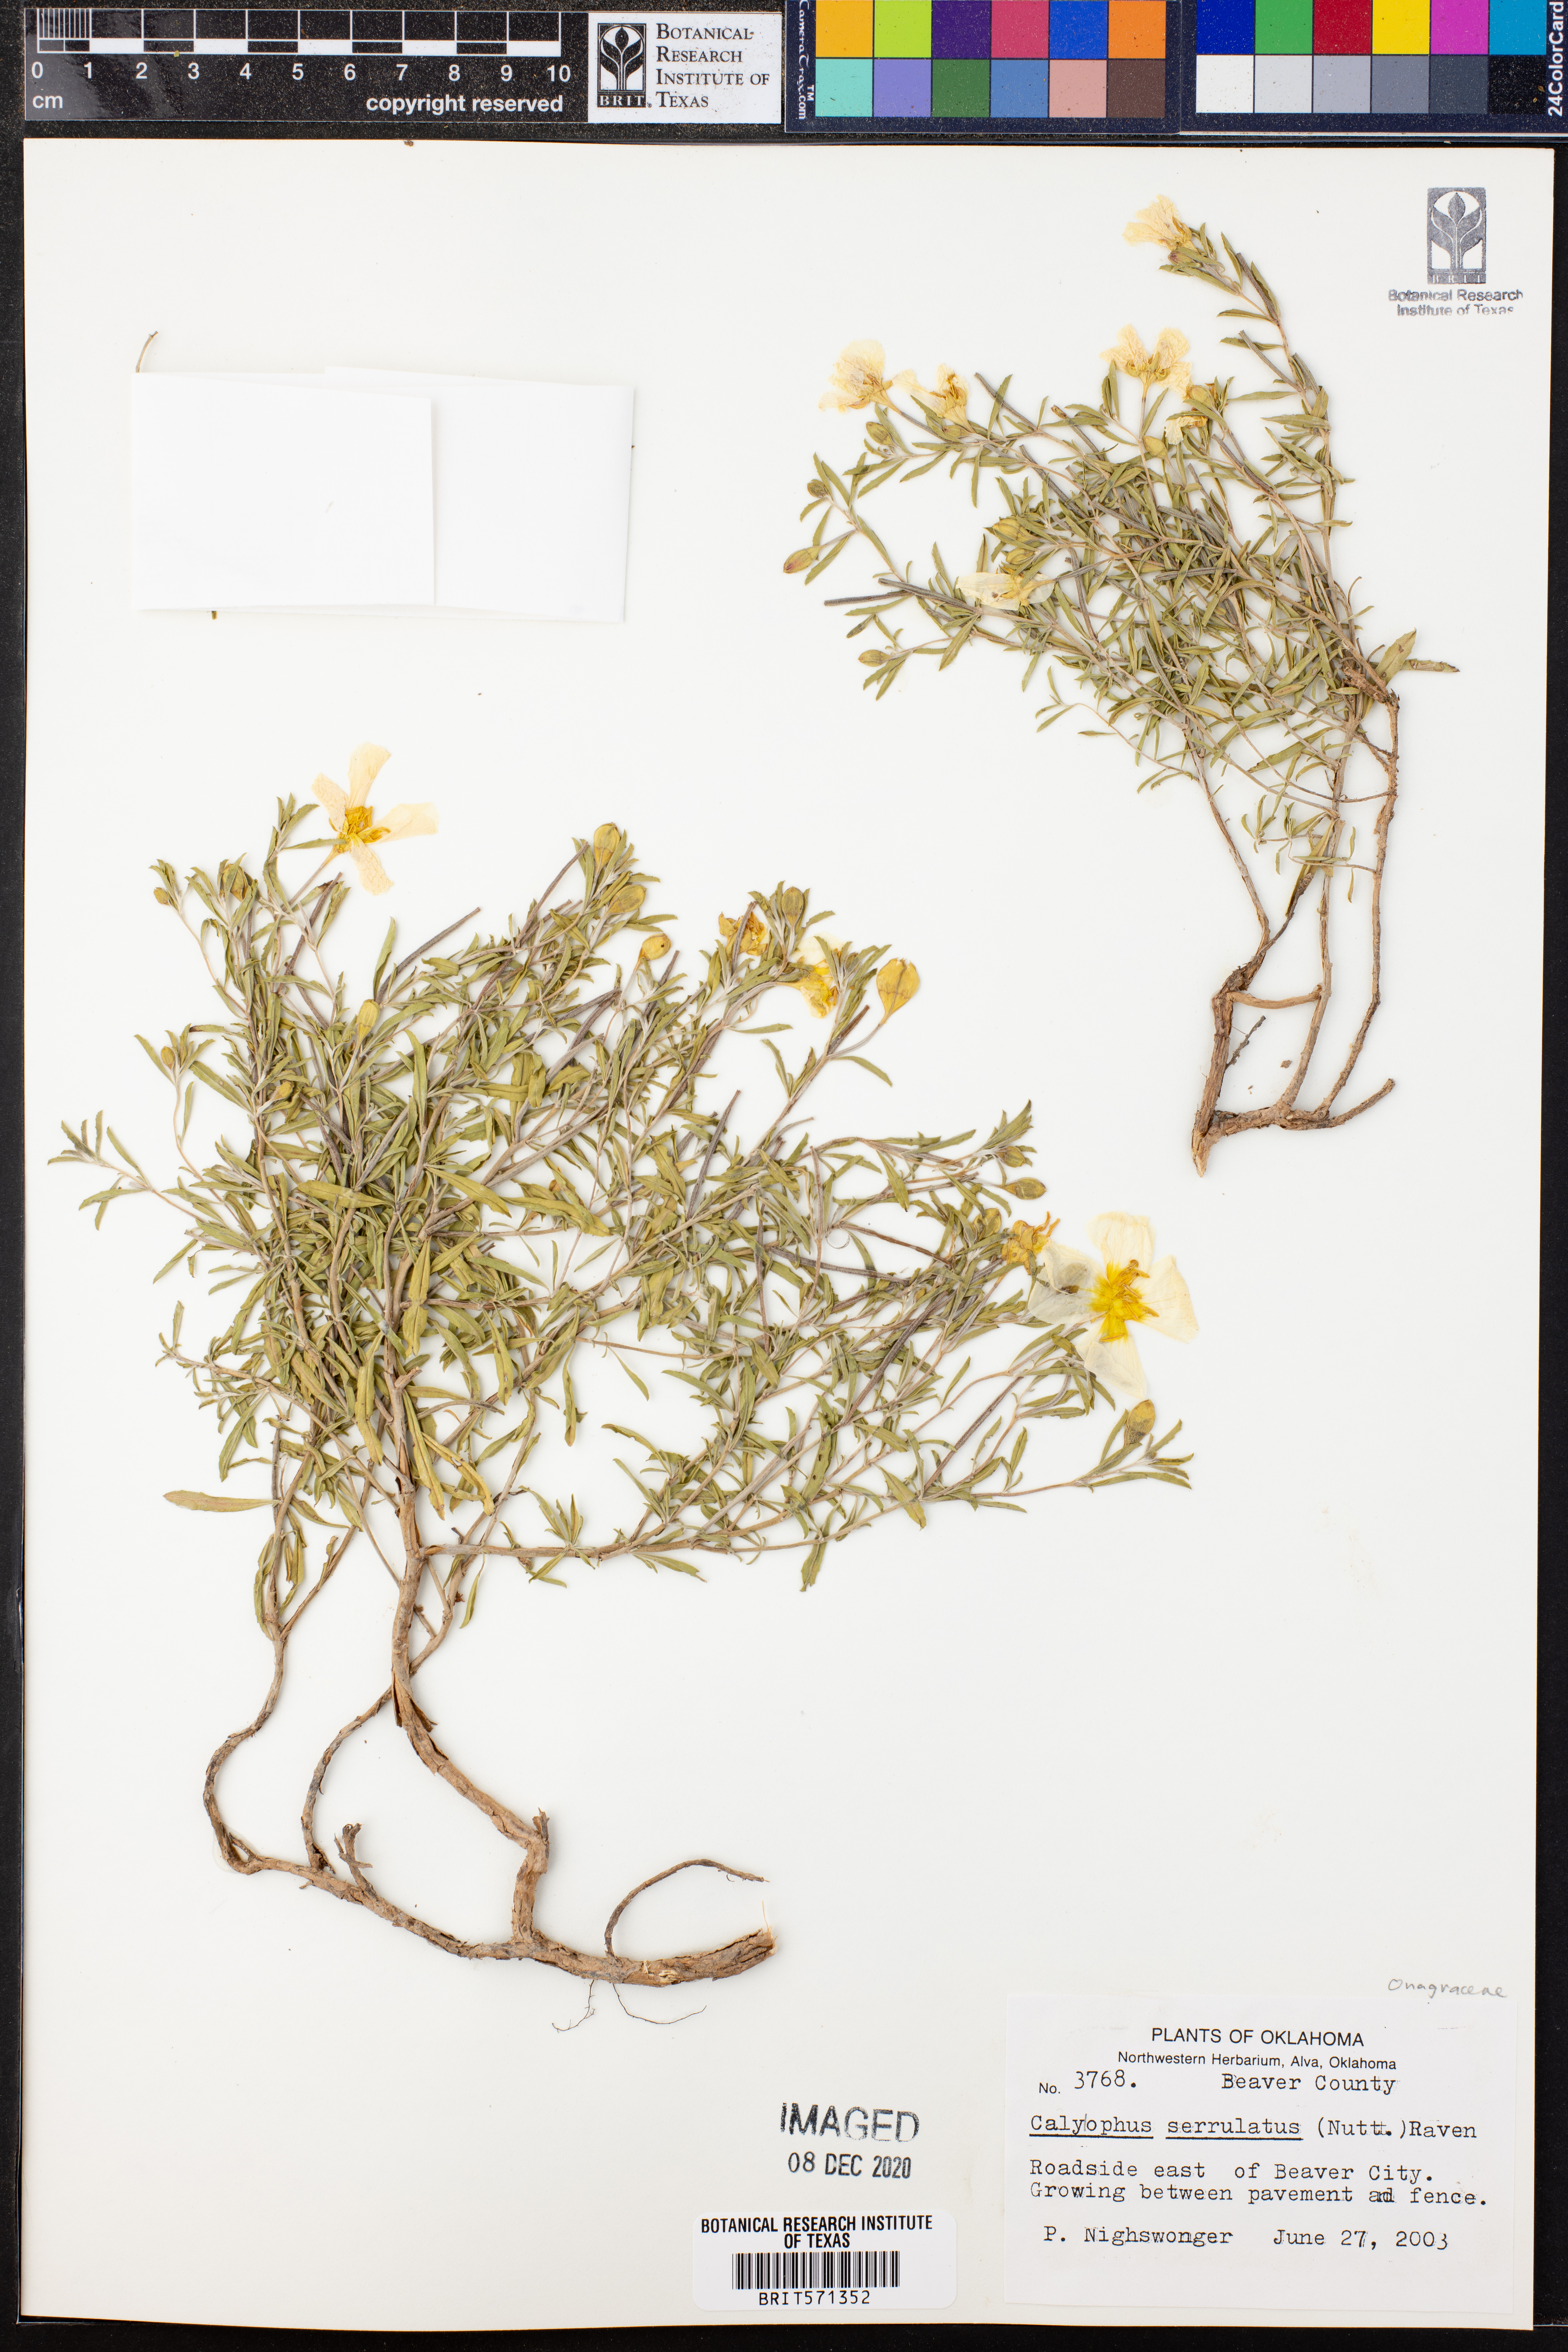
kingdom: Plantae
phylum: Tracheophyta
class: Magnoliopsida
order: Myrtales
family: Onagraceae
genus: Oenothera
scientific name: Oenothera serrulata
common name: Half-shrub calylophus
